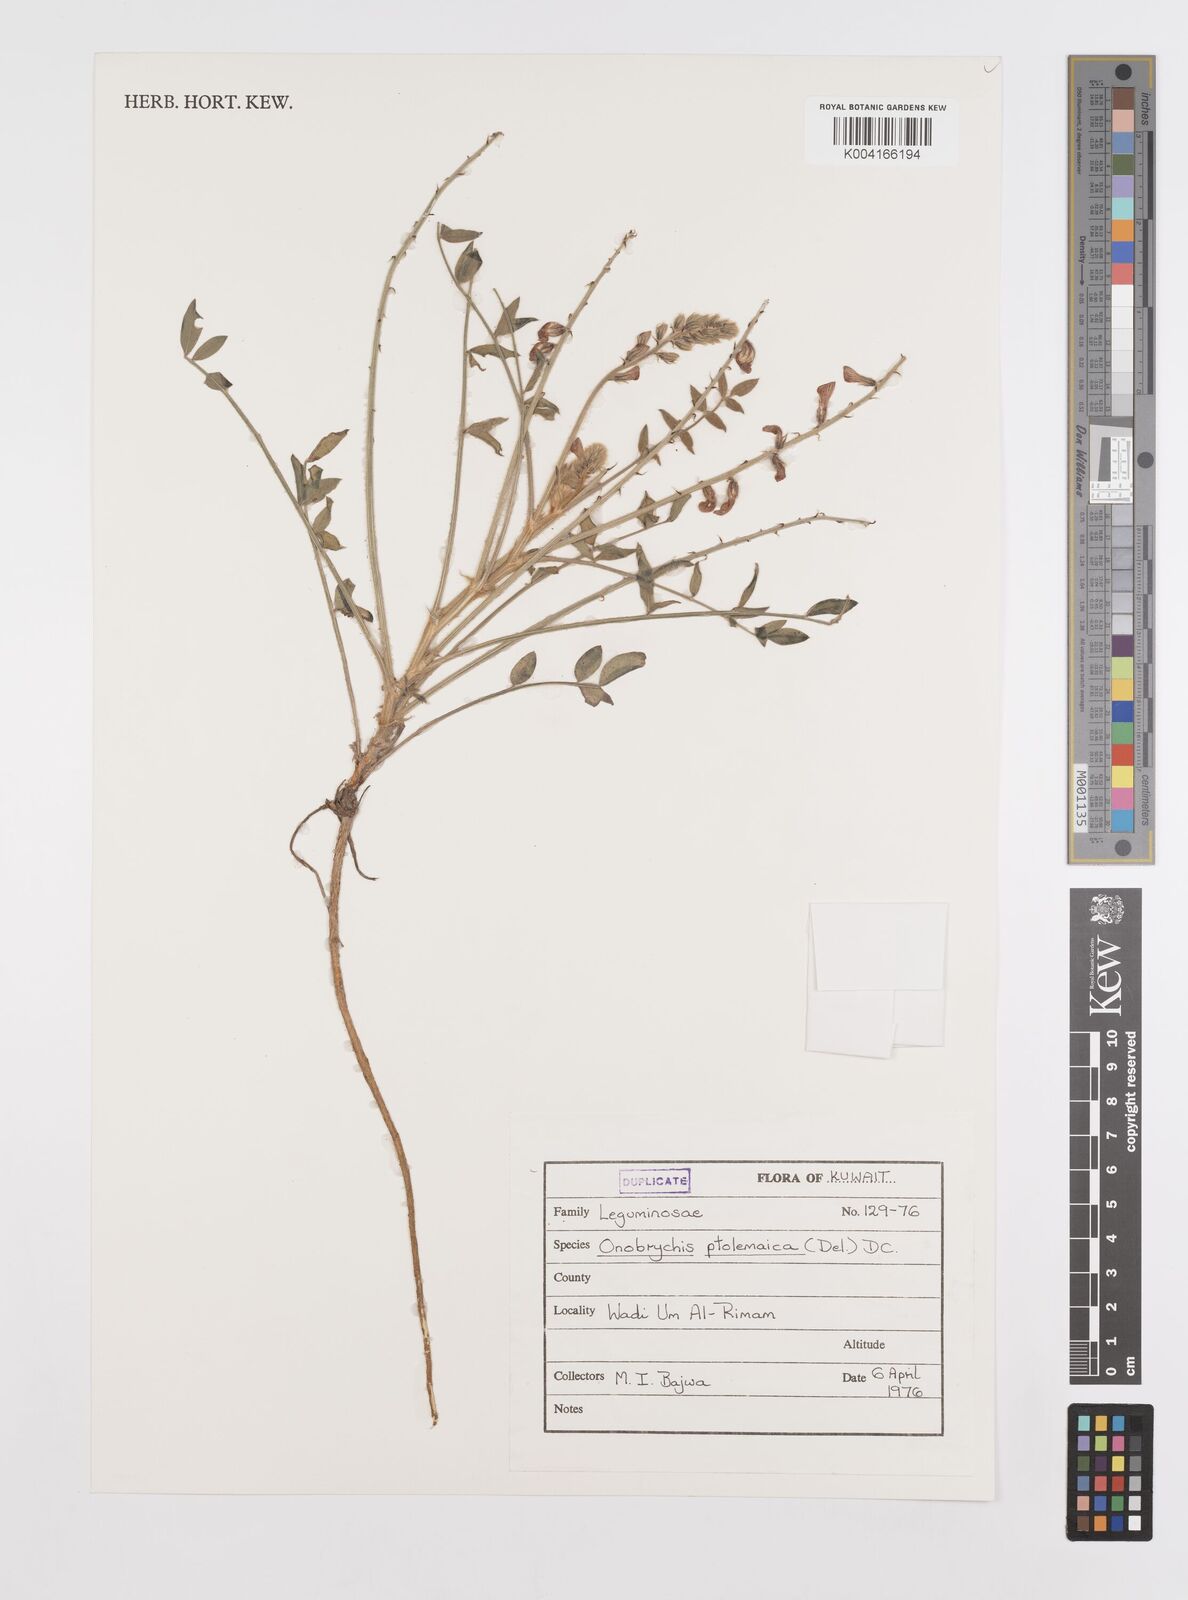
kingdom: Plantae
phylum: Tracheophyta
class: Magnoliopsida
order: Fabales
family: Fabaceae
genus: Onobrychis
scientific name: Onobrychis ptolemaica
